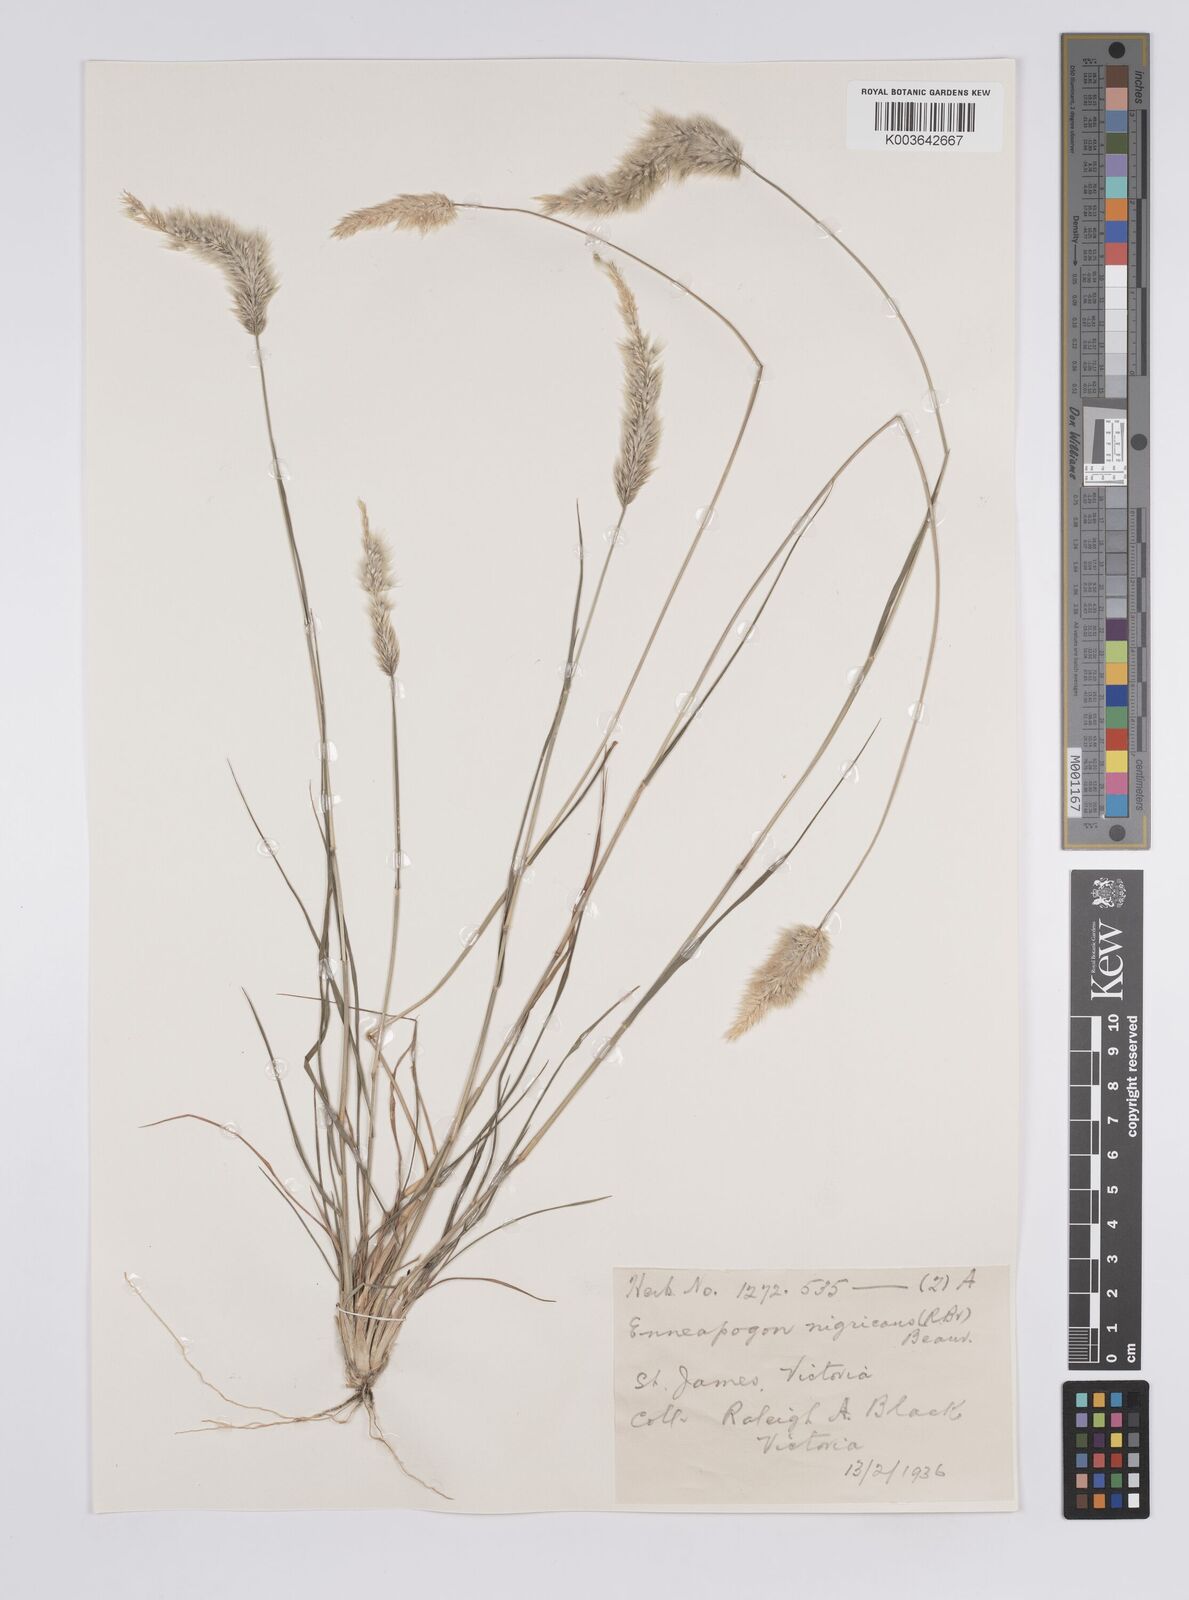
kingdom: Plantae
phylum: Tracheophyta
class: Liliopsida
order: Poales
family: Poaceae
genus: Enneapogon
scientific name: Enneapogon nigricans
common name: Pappus grass
